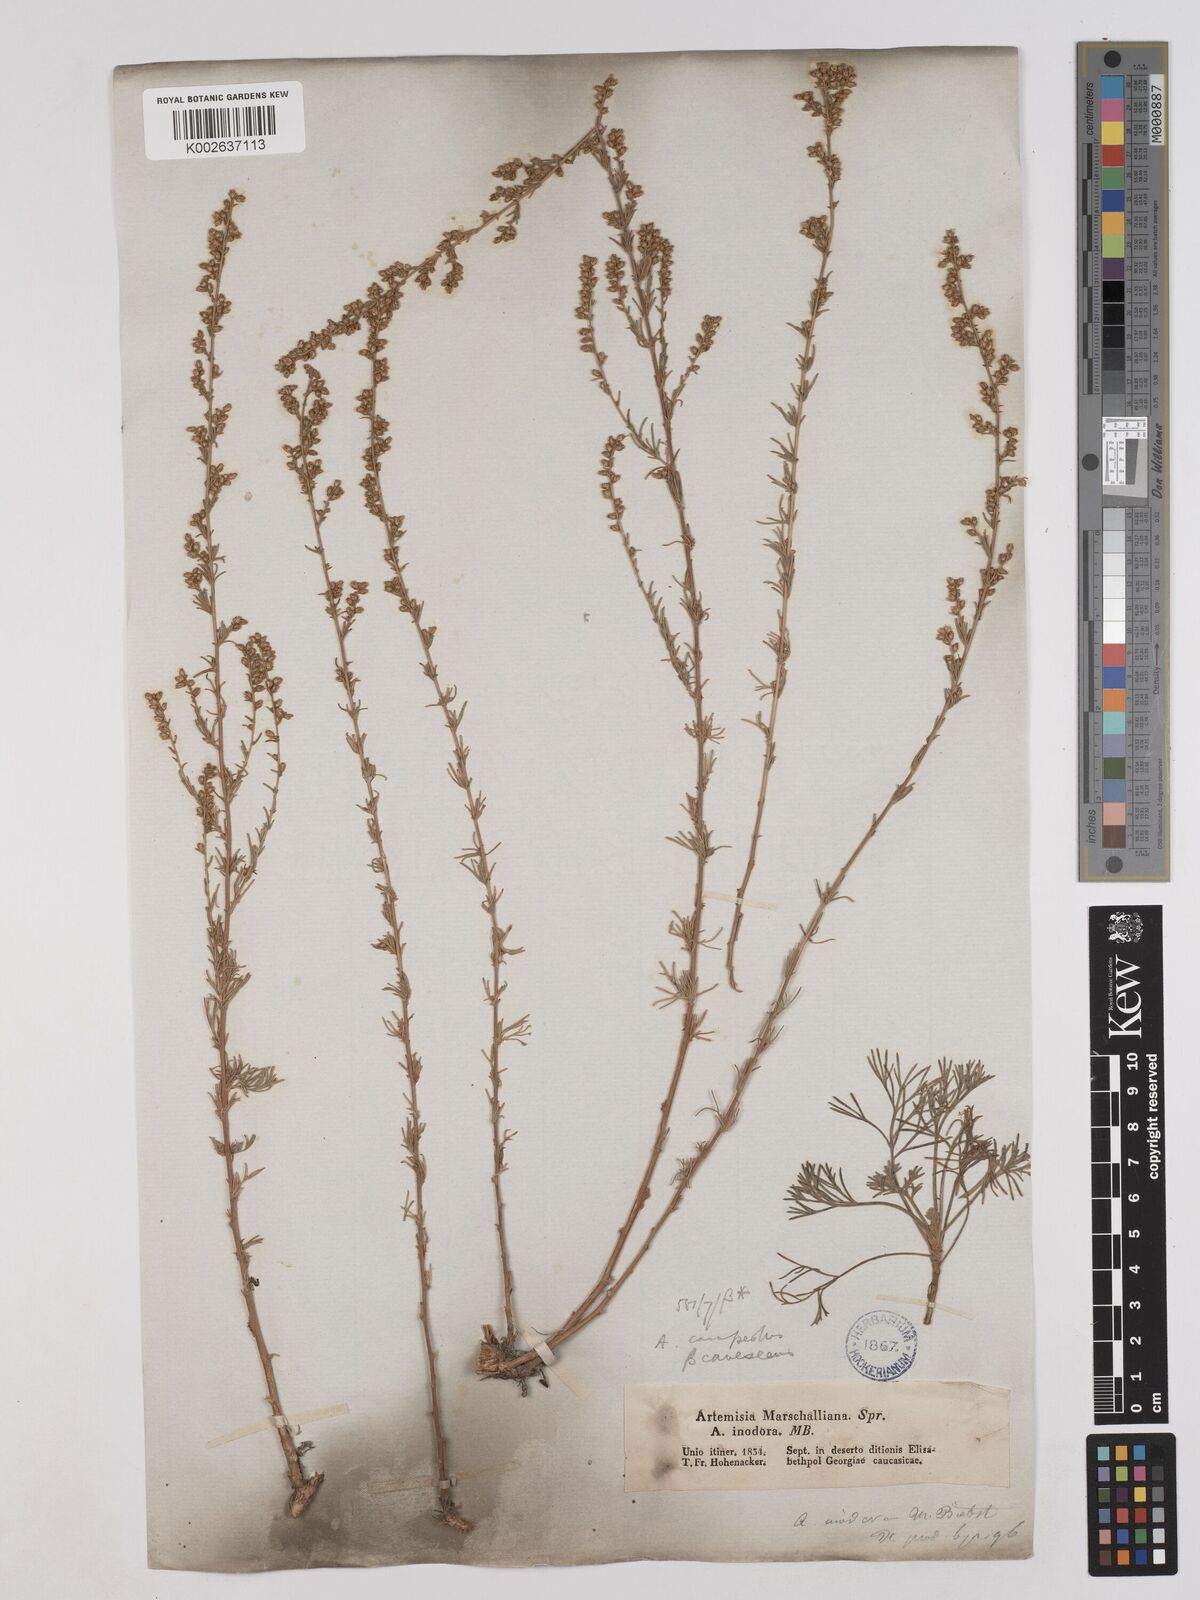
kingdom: Plantae
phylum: Tracheophyta
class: Magnoliopsida
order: Asterales
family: Asteraceae
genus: Artemisia
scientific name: Artemisia campestris
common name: Field wormwood
